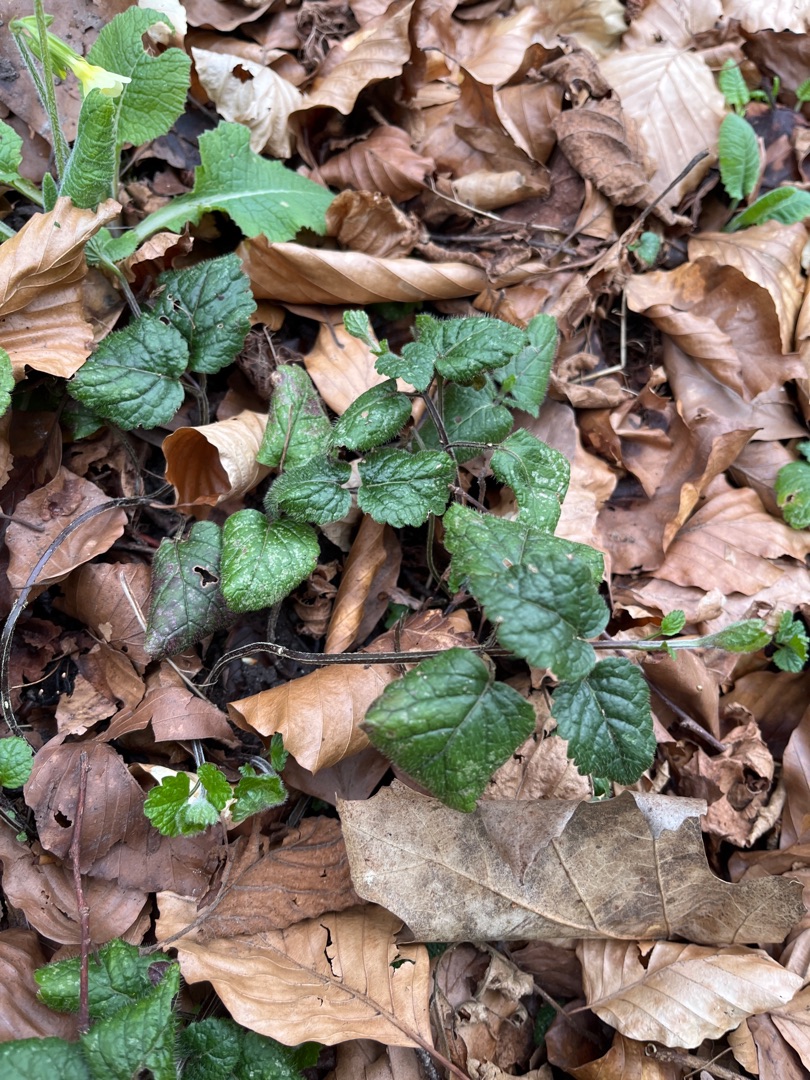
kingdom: Plantae
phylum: Tracheophyta
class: Magnoliopsida
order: Lamiales
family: Lamiaceae
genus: Lamium
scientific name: Lamium galeobdolon
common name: Almindelig guldnælde
